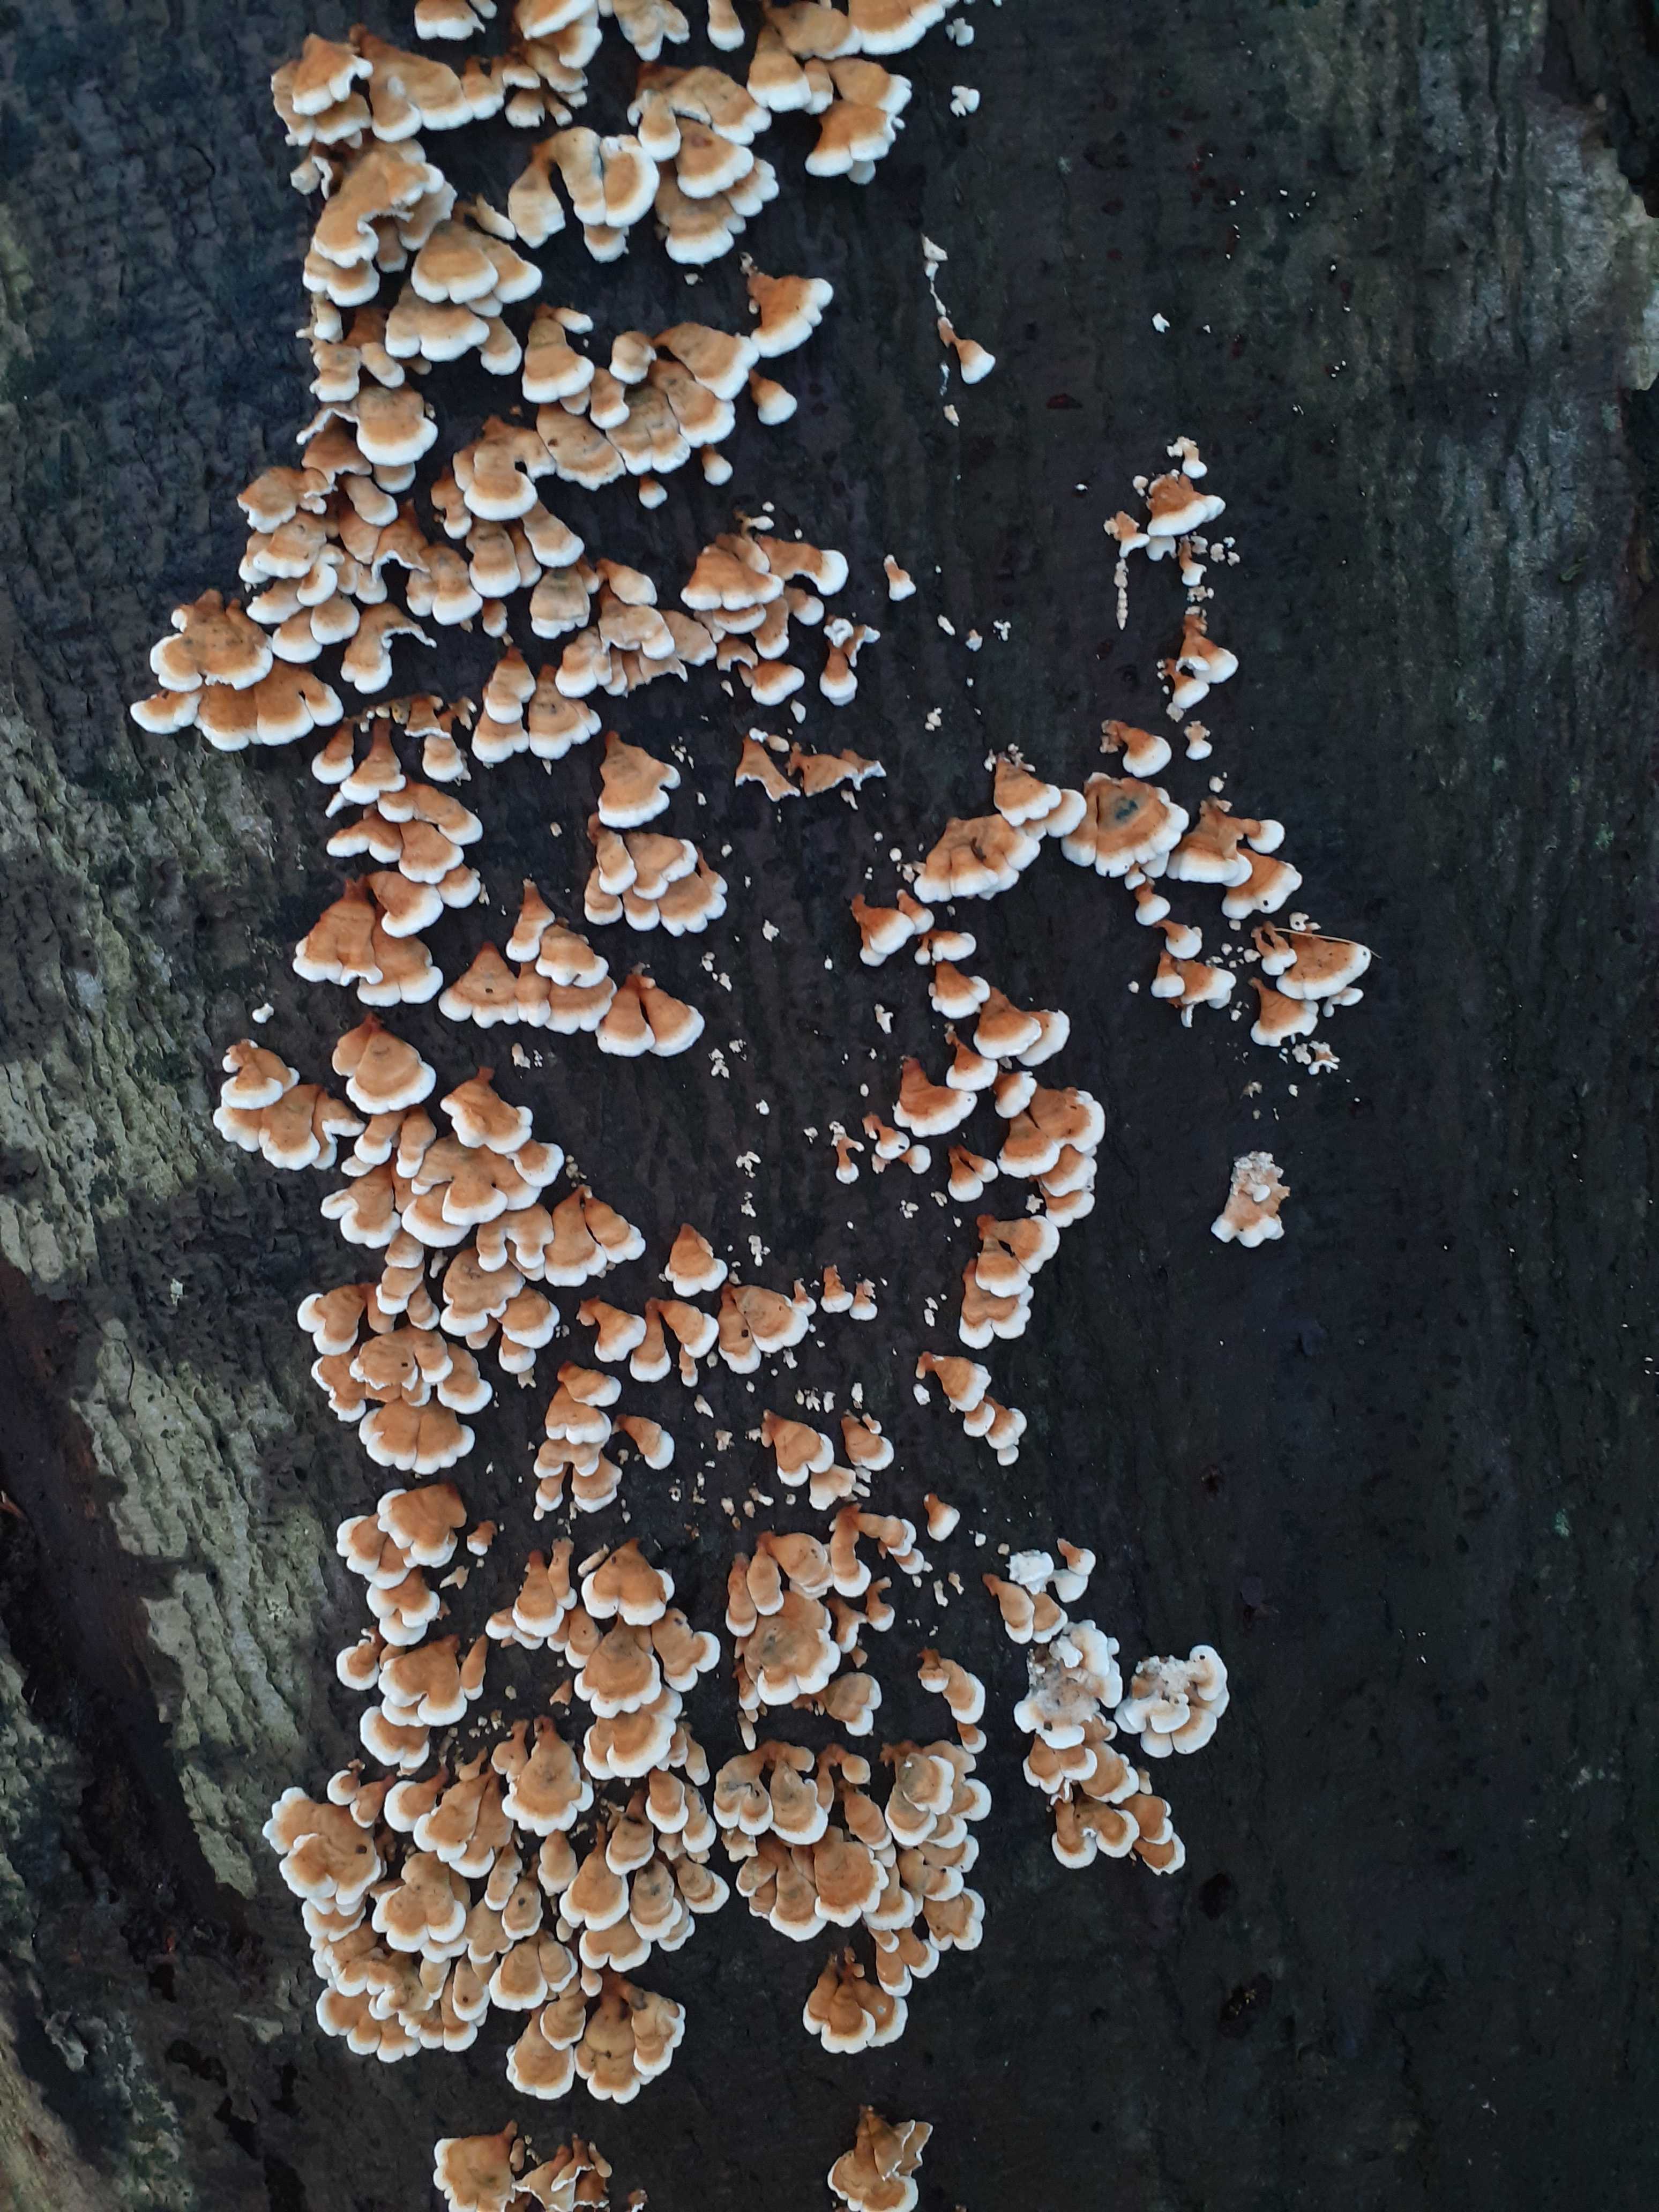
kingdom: Fungi
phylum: Basidiomycota
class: Agaricomycetes
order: Amylocorticiales
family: Amylocorticiaceae
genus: Plicaturopsis
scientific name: Plicaturopsis crispa
